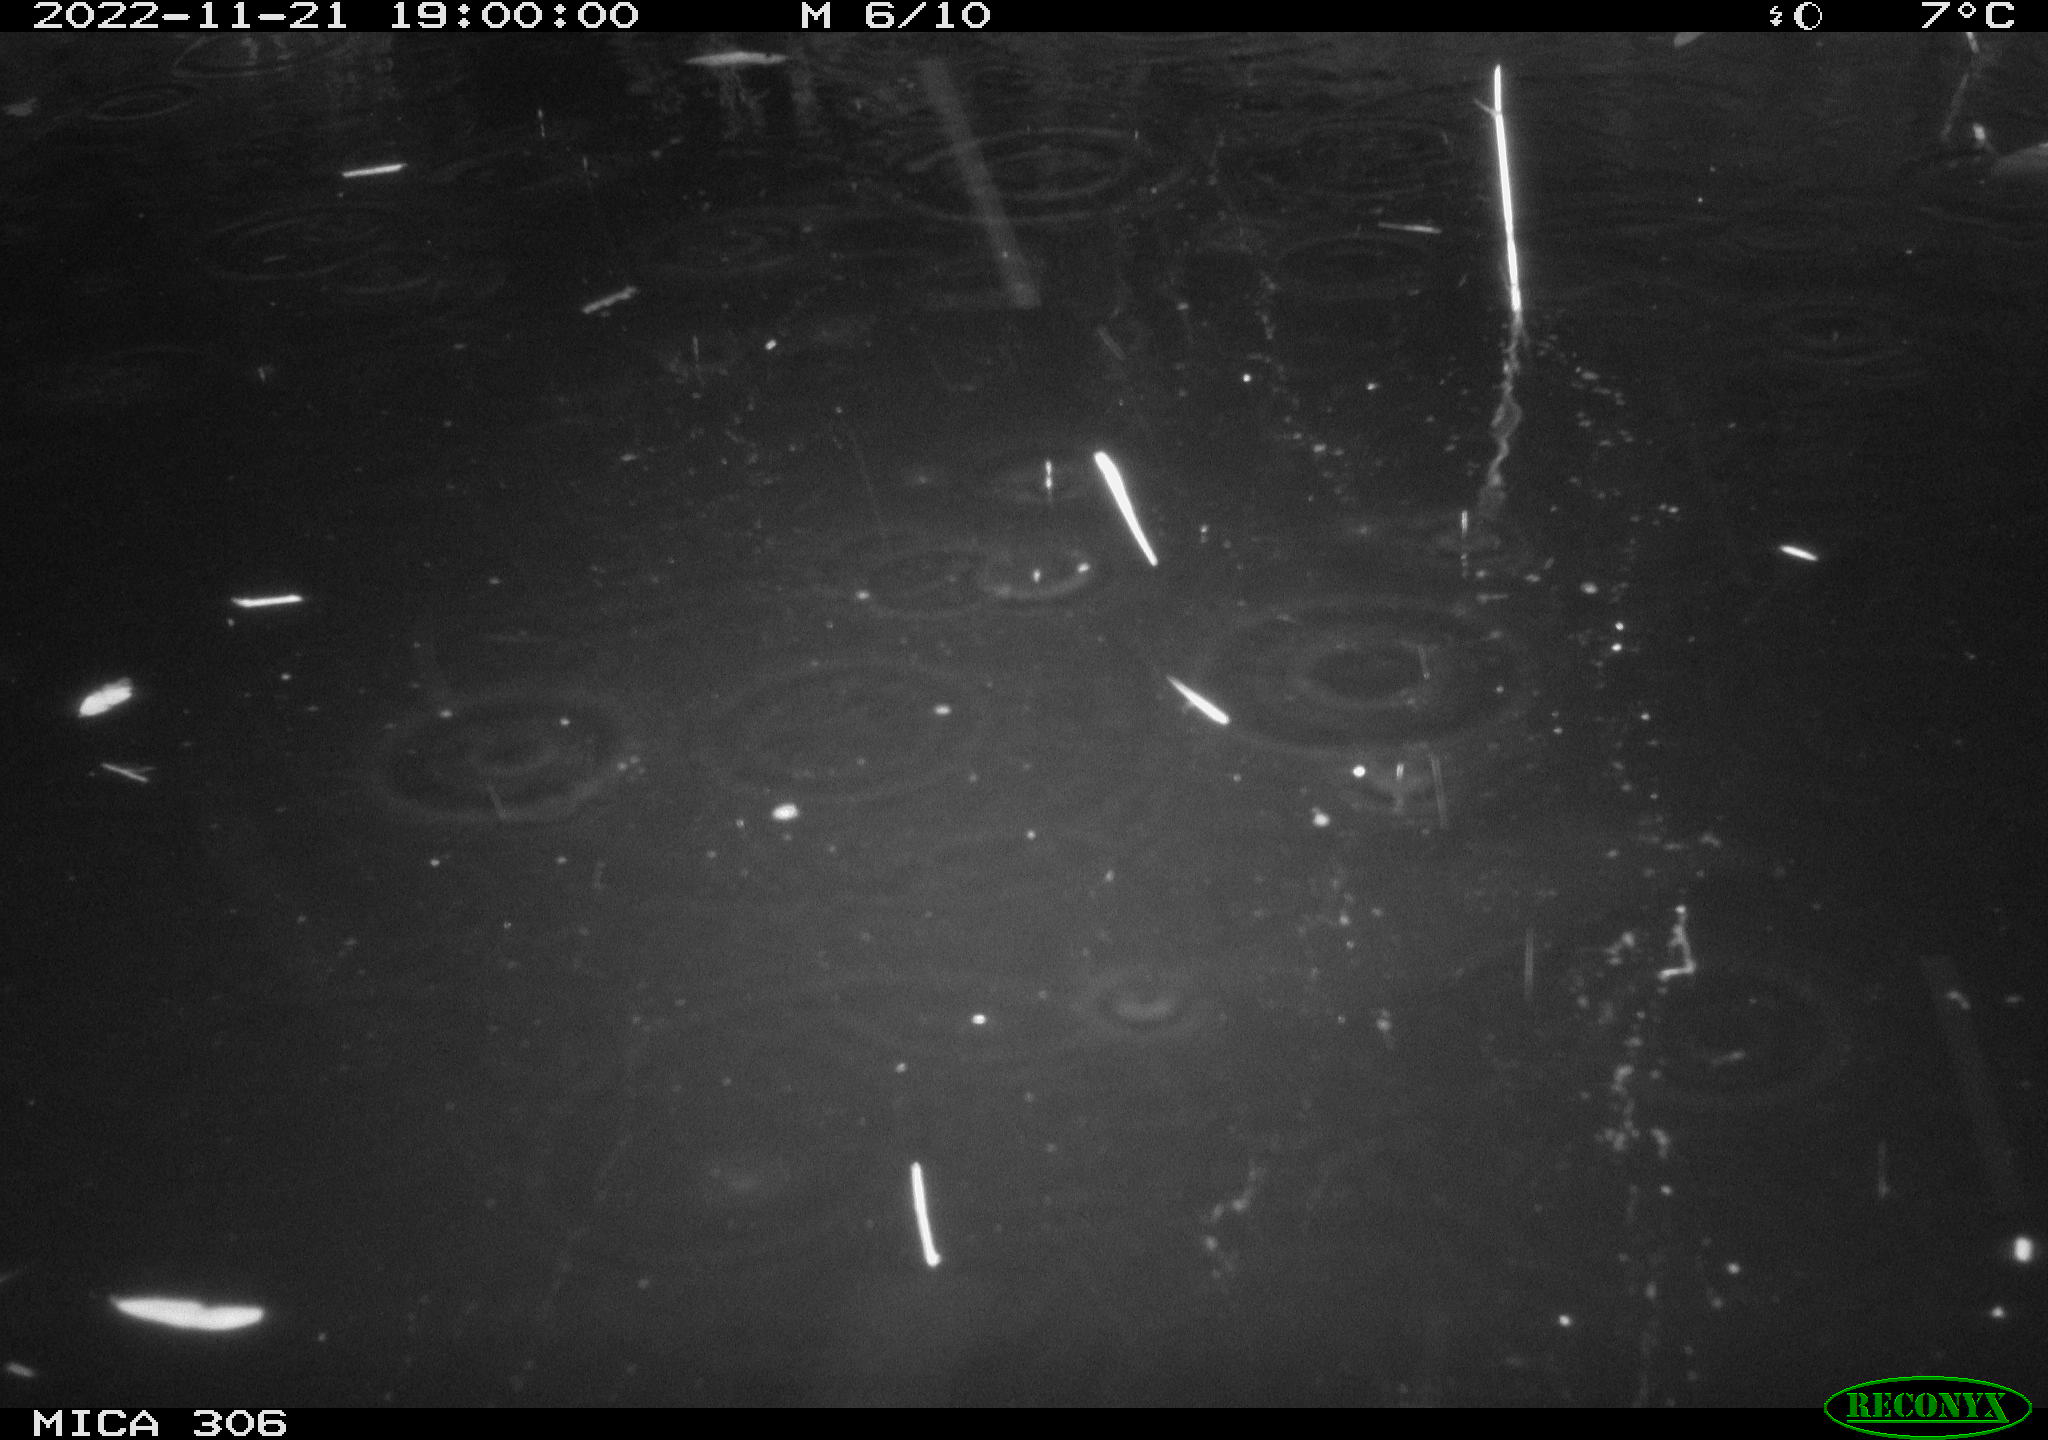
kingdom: Animalia
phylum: Chordata
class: Mammalia
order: Rodentia
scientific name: Rodentia
